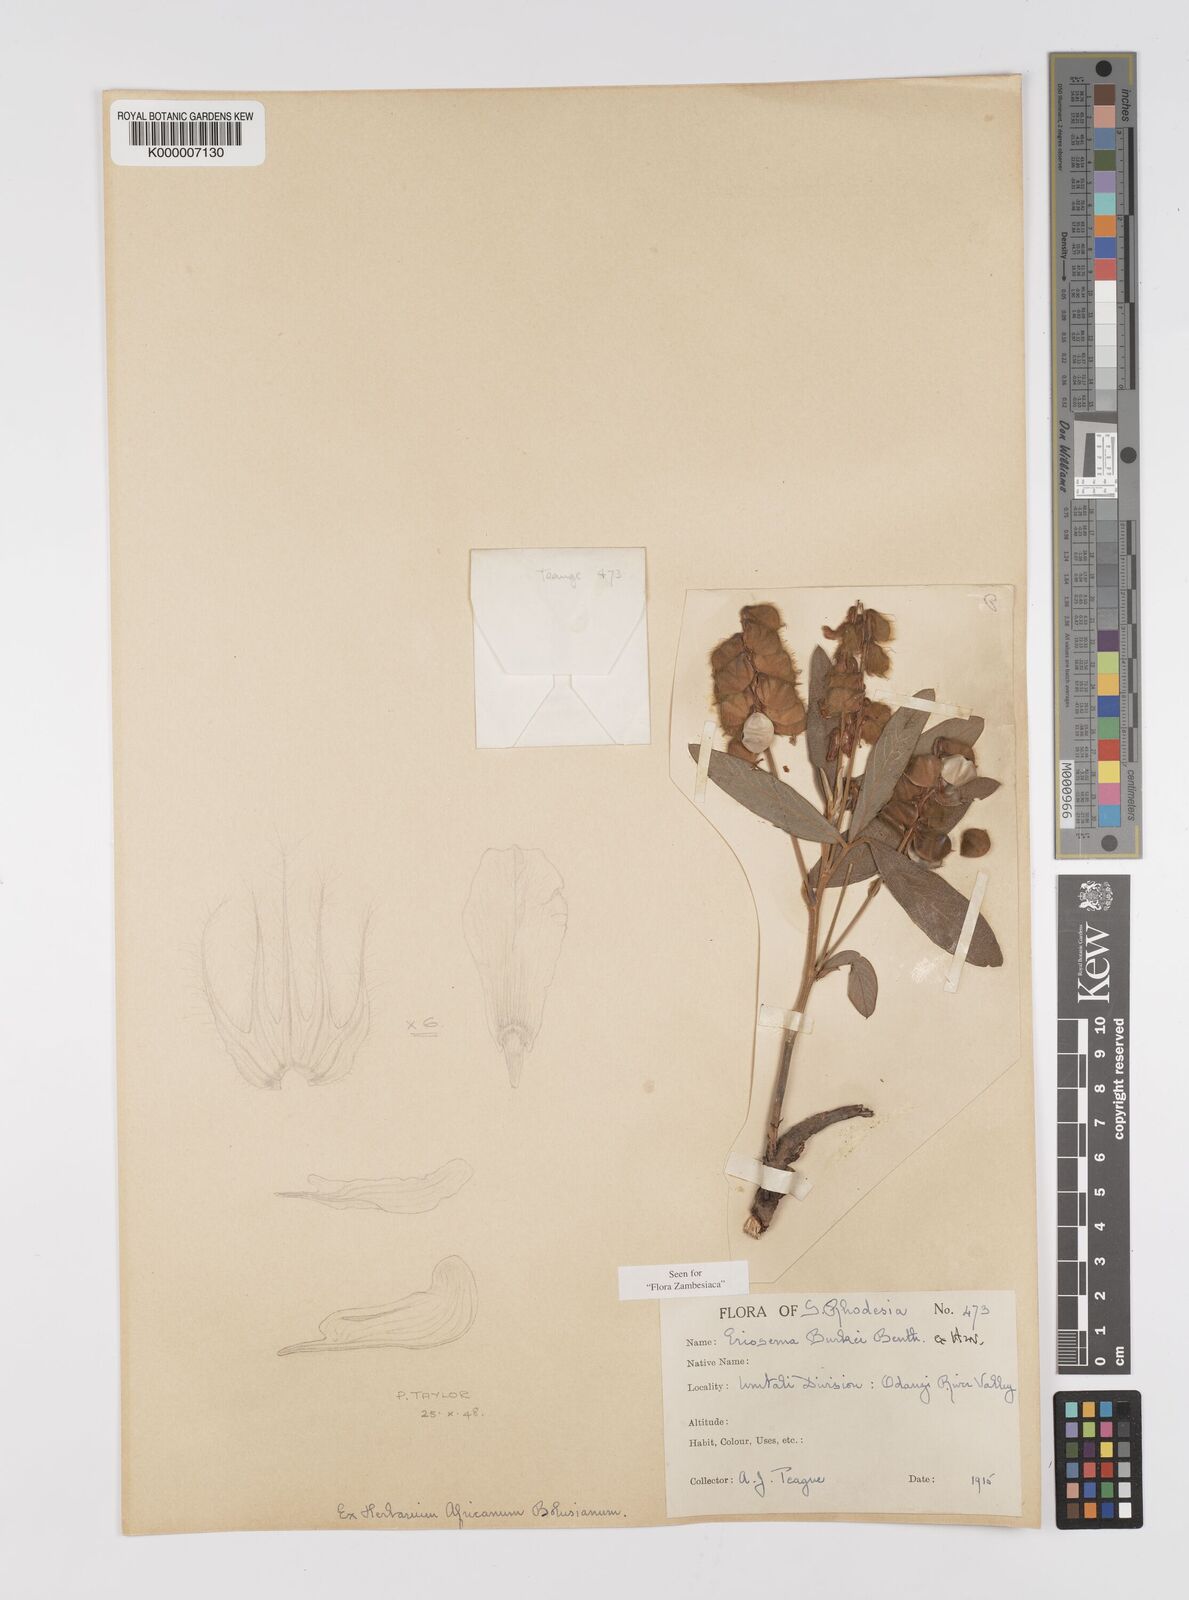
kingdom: Plantae
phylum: Tracheophyta
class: Magnoliopsida
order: Fabales
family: Fabaceae
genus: Eriosema
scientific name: Eriosema burkei
